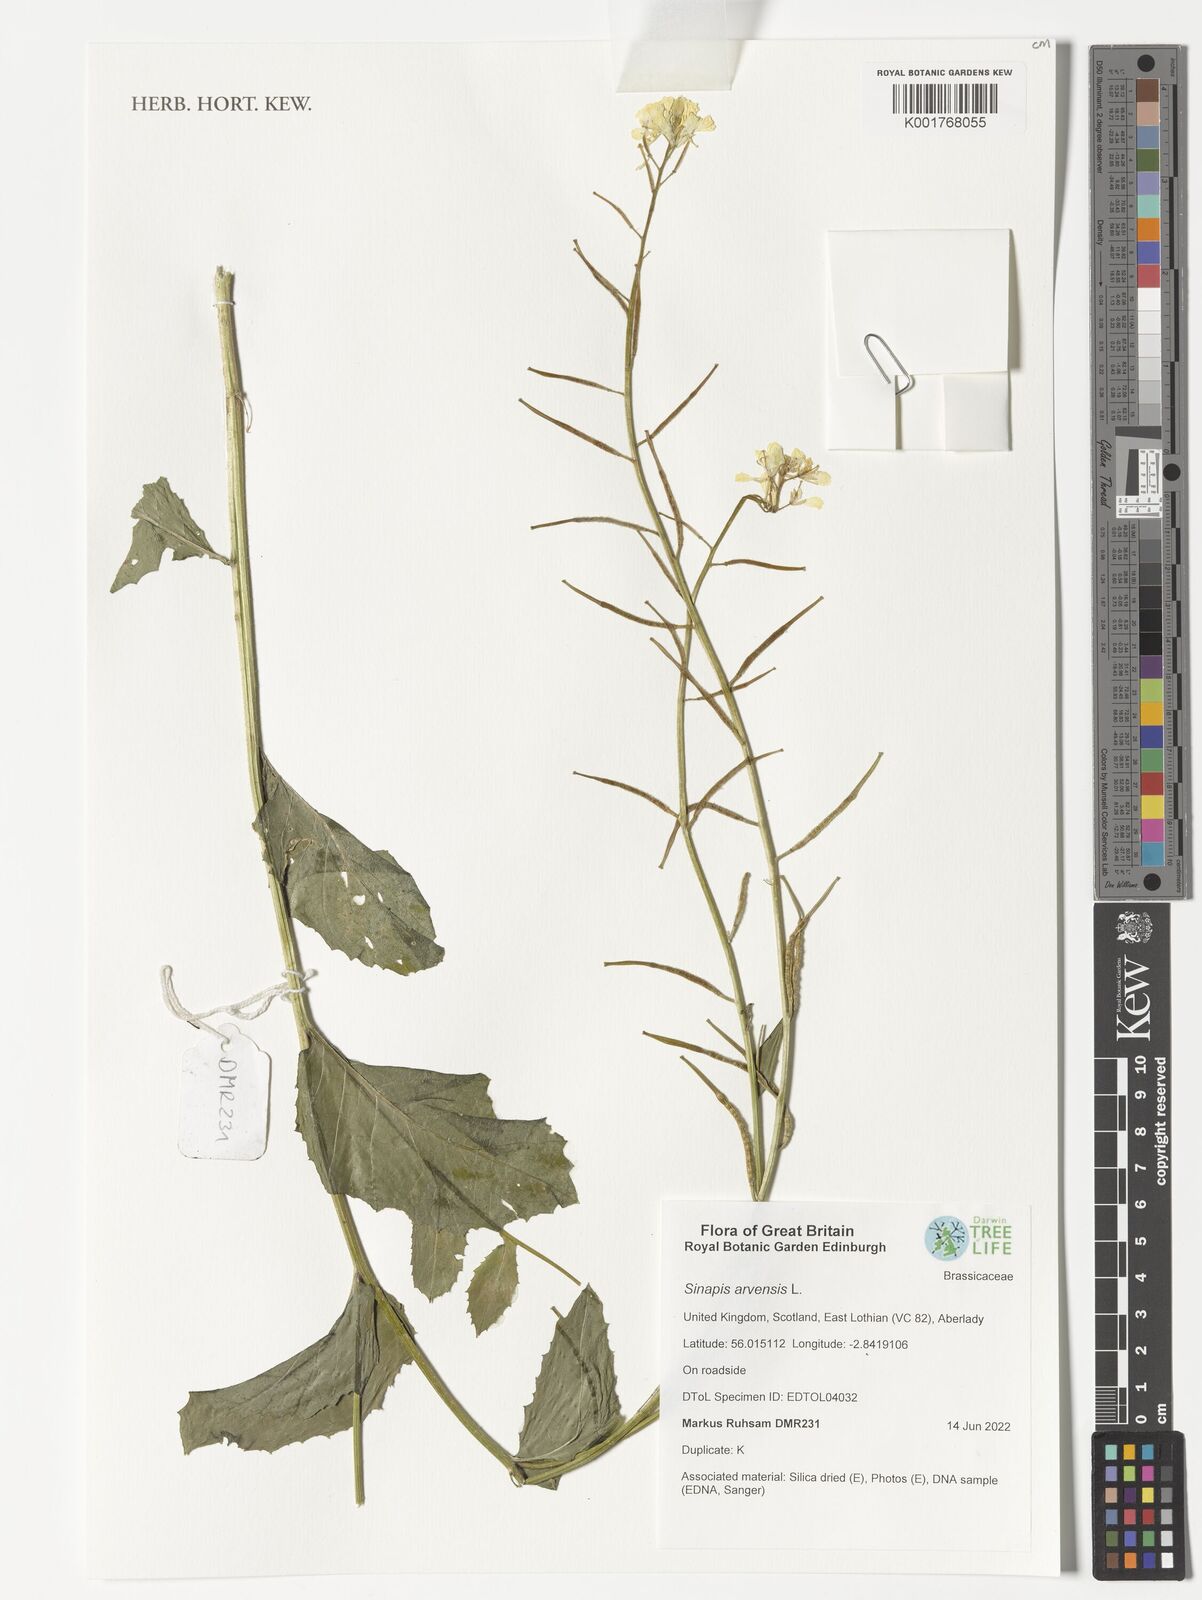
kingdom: Plantae
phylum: Tracheophyta
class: Magnoliopsida
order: Brassicales
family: Brassicaceae
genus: Sinapis
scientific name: Sinapis arvensis
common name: Charlock
